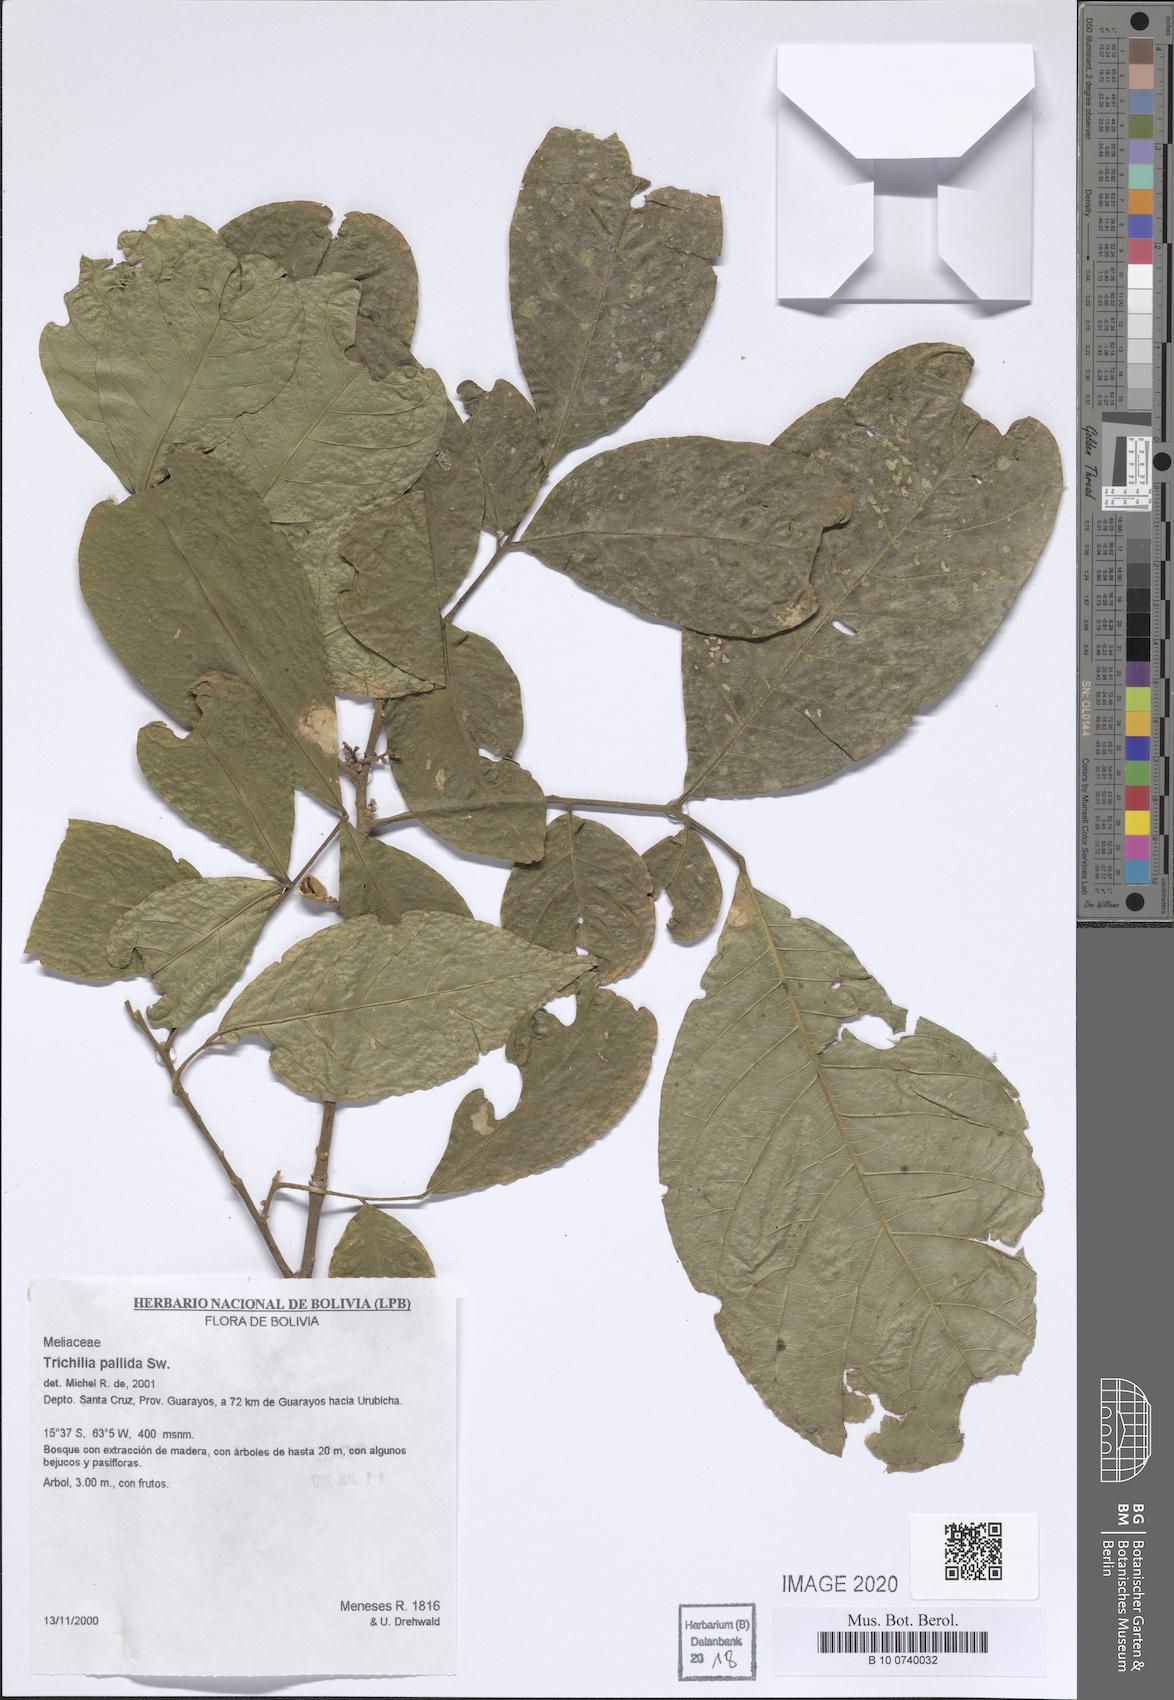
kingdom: Plantae
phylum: Tracheophyta
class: Magnoliopsida
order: Sapindales
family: Meliaceae
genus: Trichilia
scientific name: Trichilia pallida
